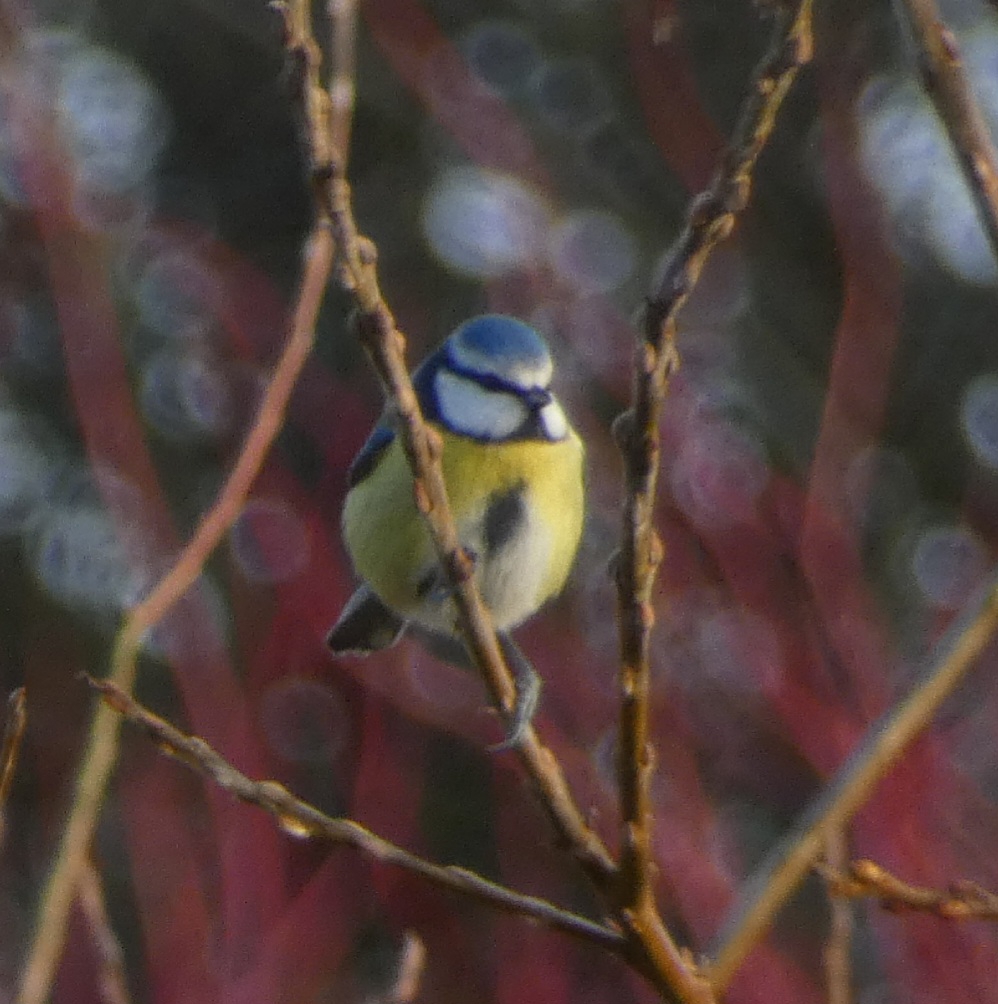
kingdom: Animalia
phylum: Chordata
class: Aves
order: Passeriformes
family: Paridae
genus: Cyanistes
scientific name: Cyanistes caeruleus
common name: Blåmejse
